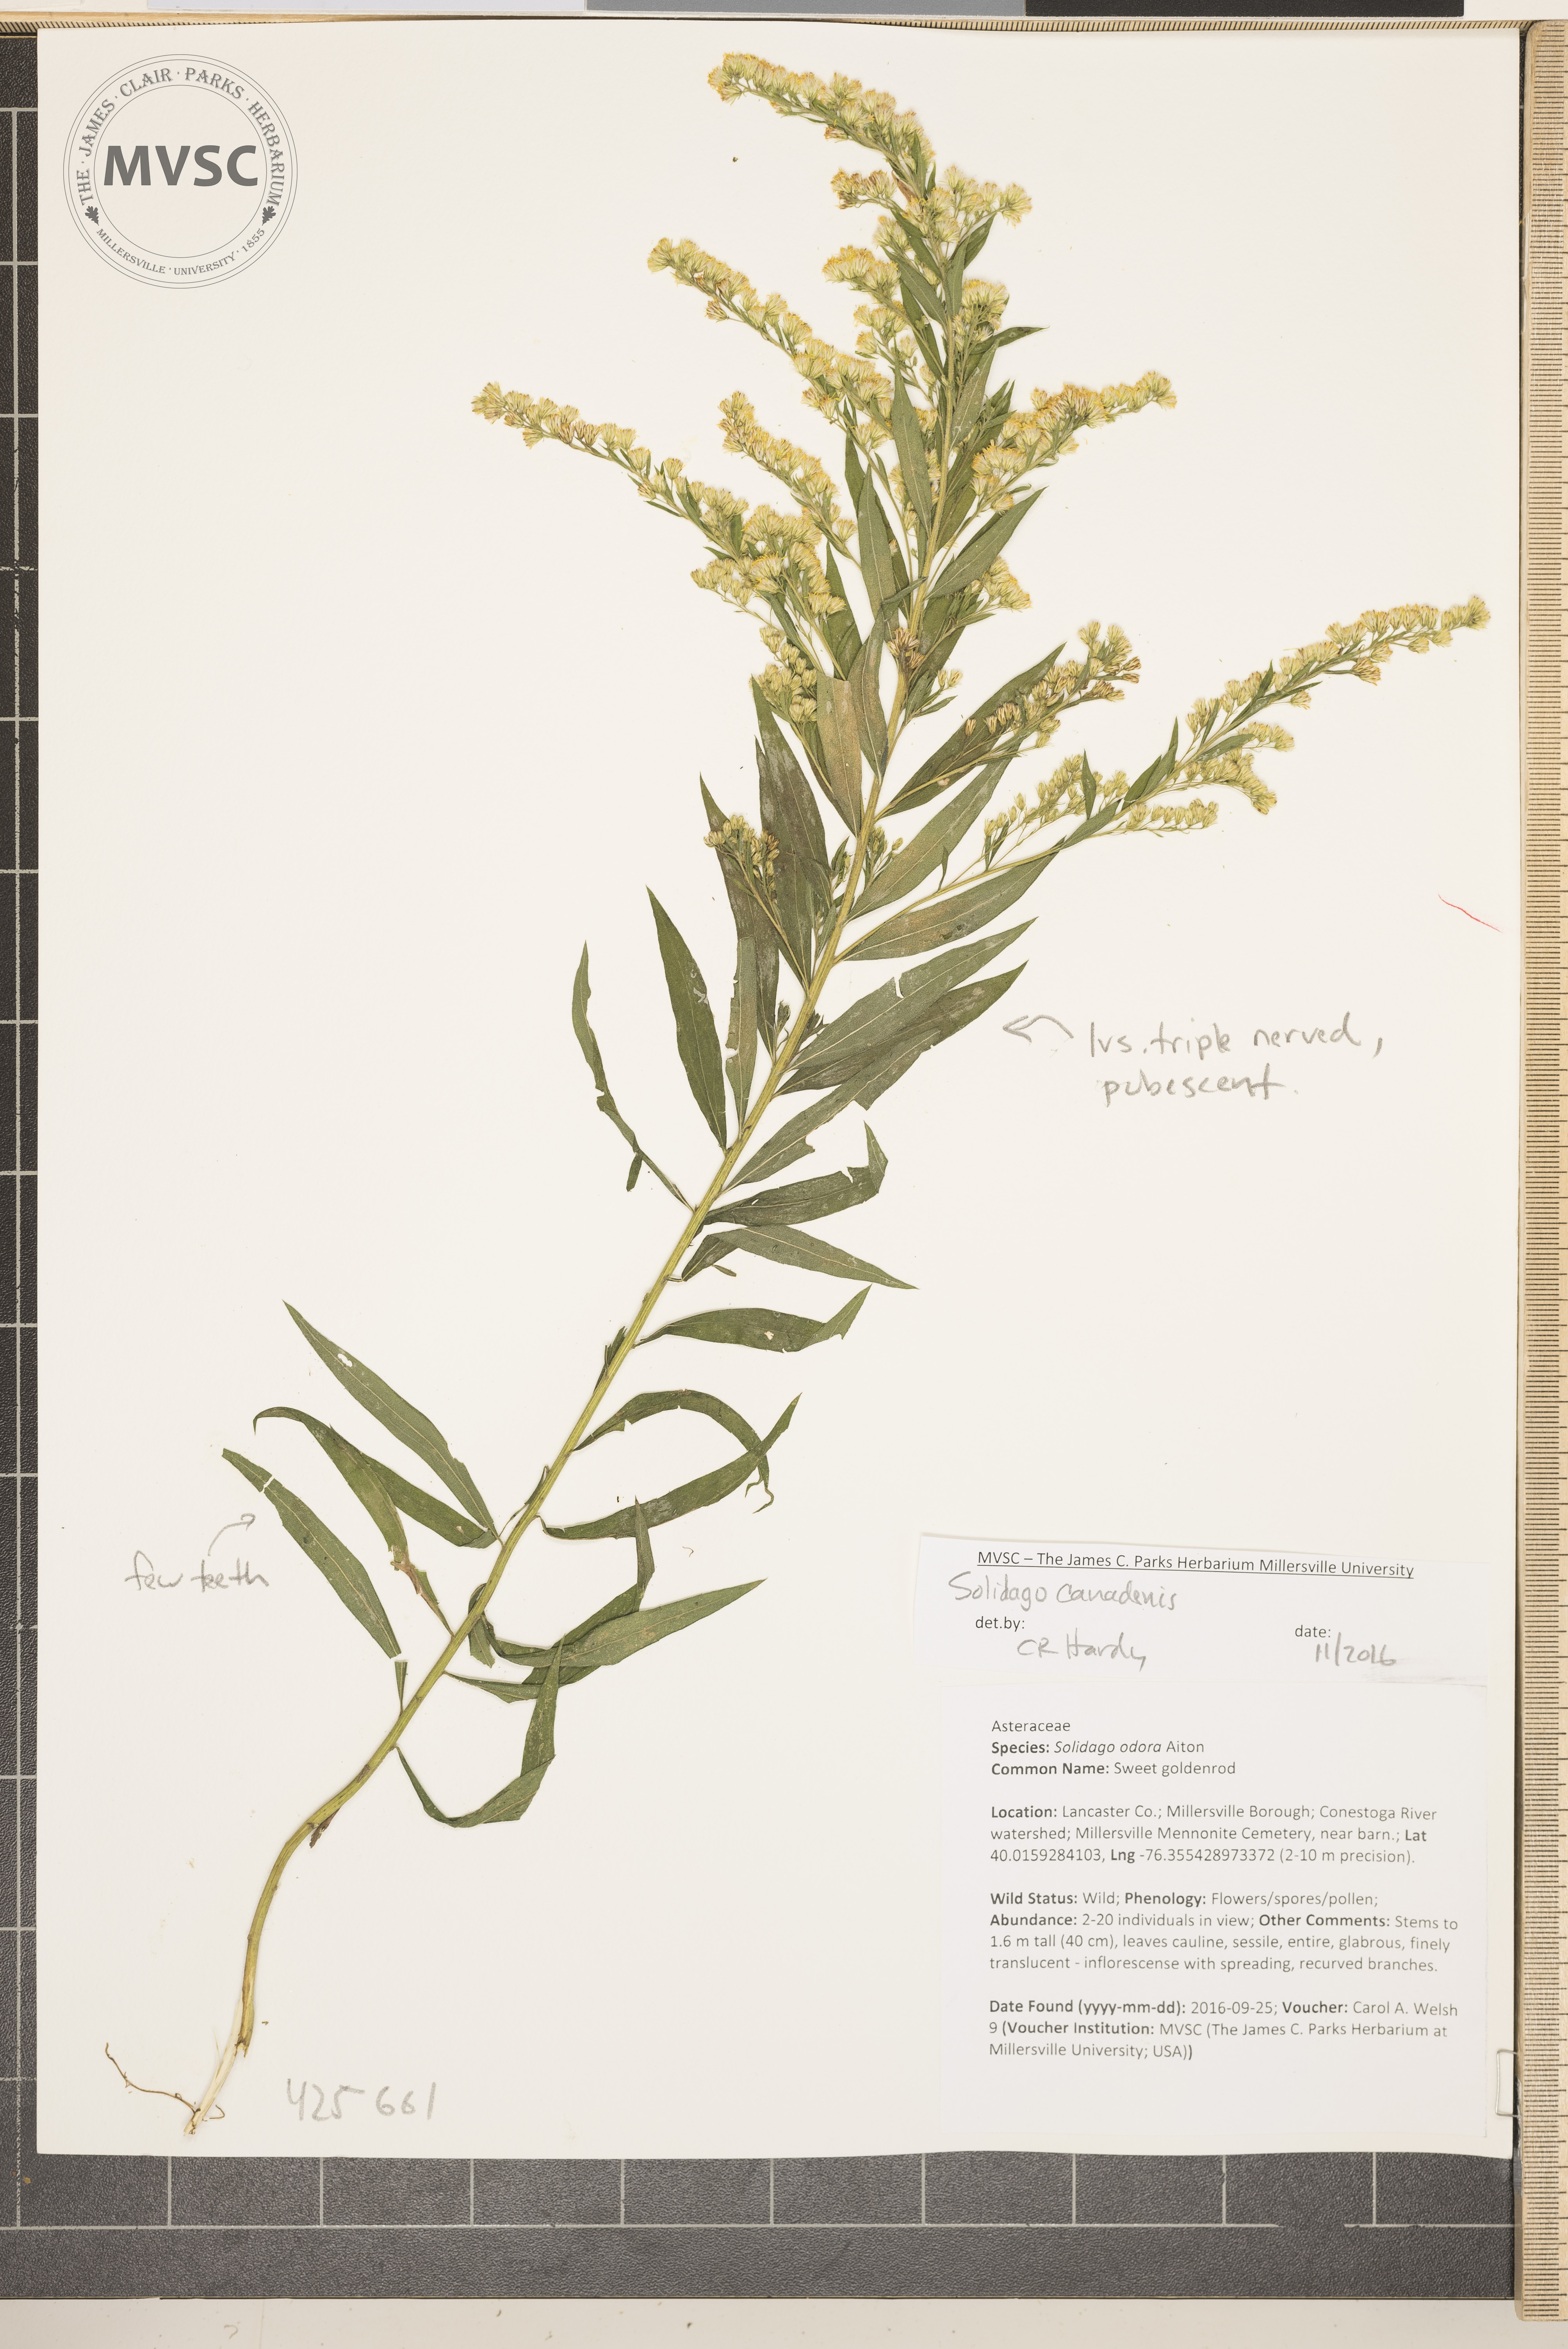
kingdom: Plantae
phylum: Tracheophyta
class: Magnoliopsida
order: Asterales
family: Asteraceae
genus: Solidago
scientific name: Solidago altissima
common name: Late goldenrod
